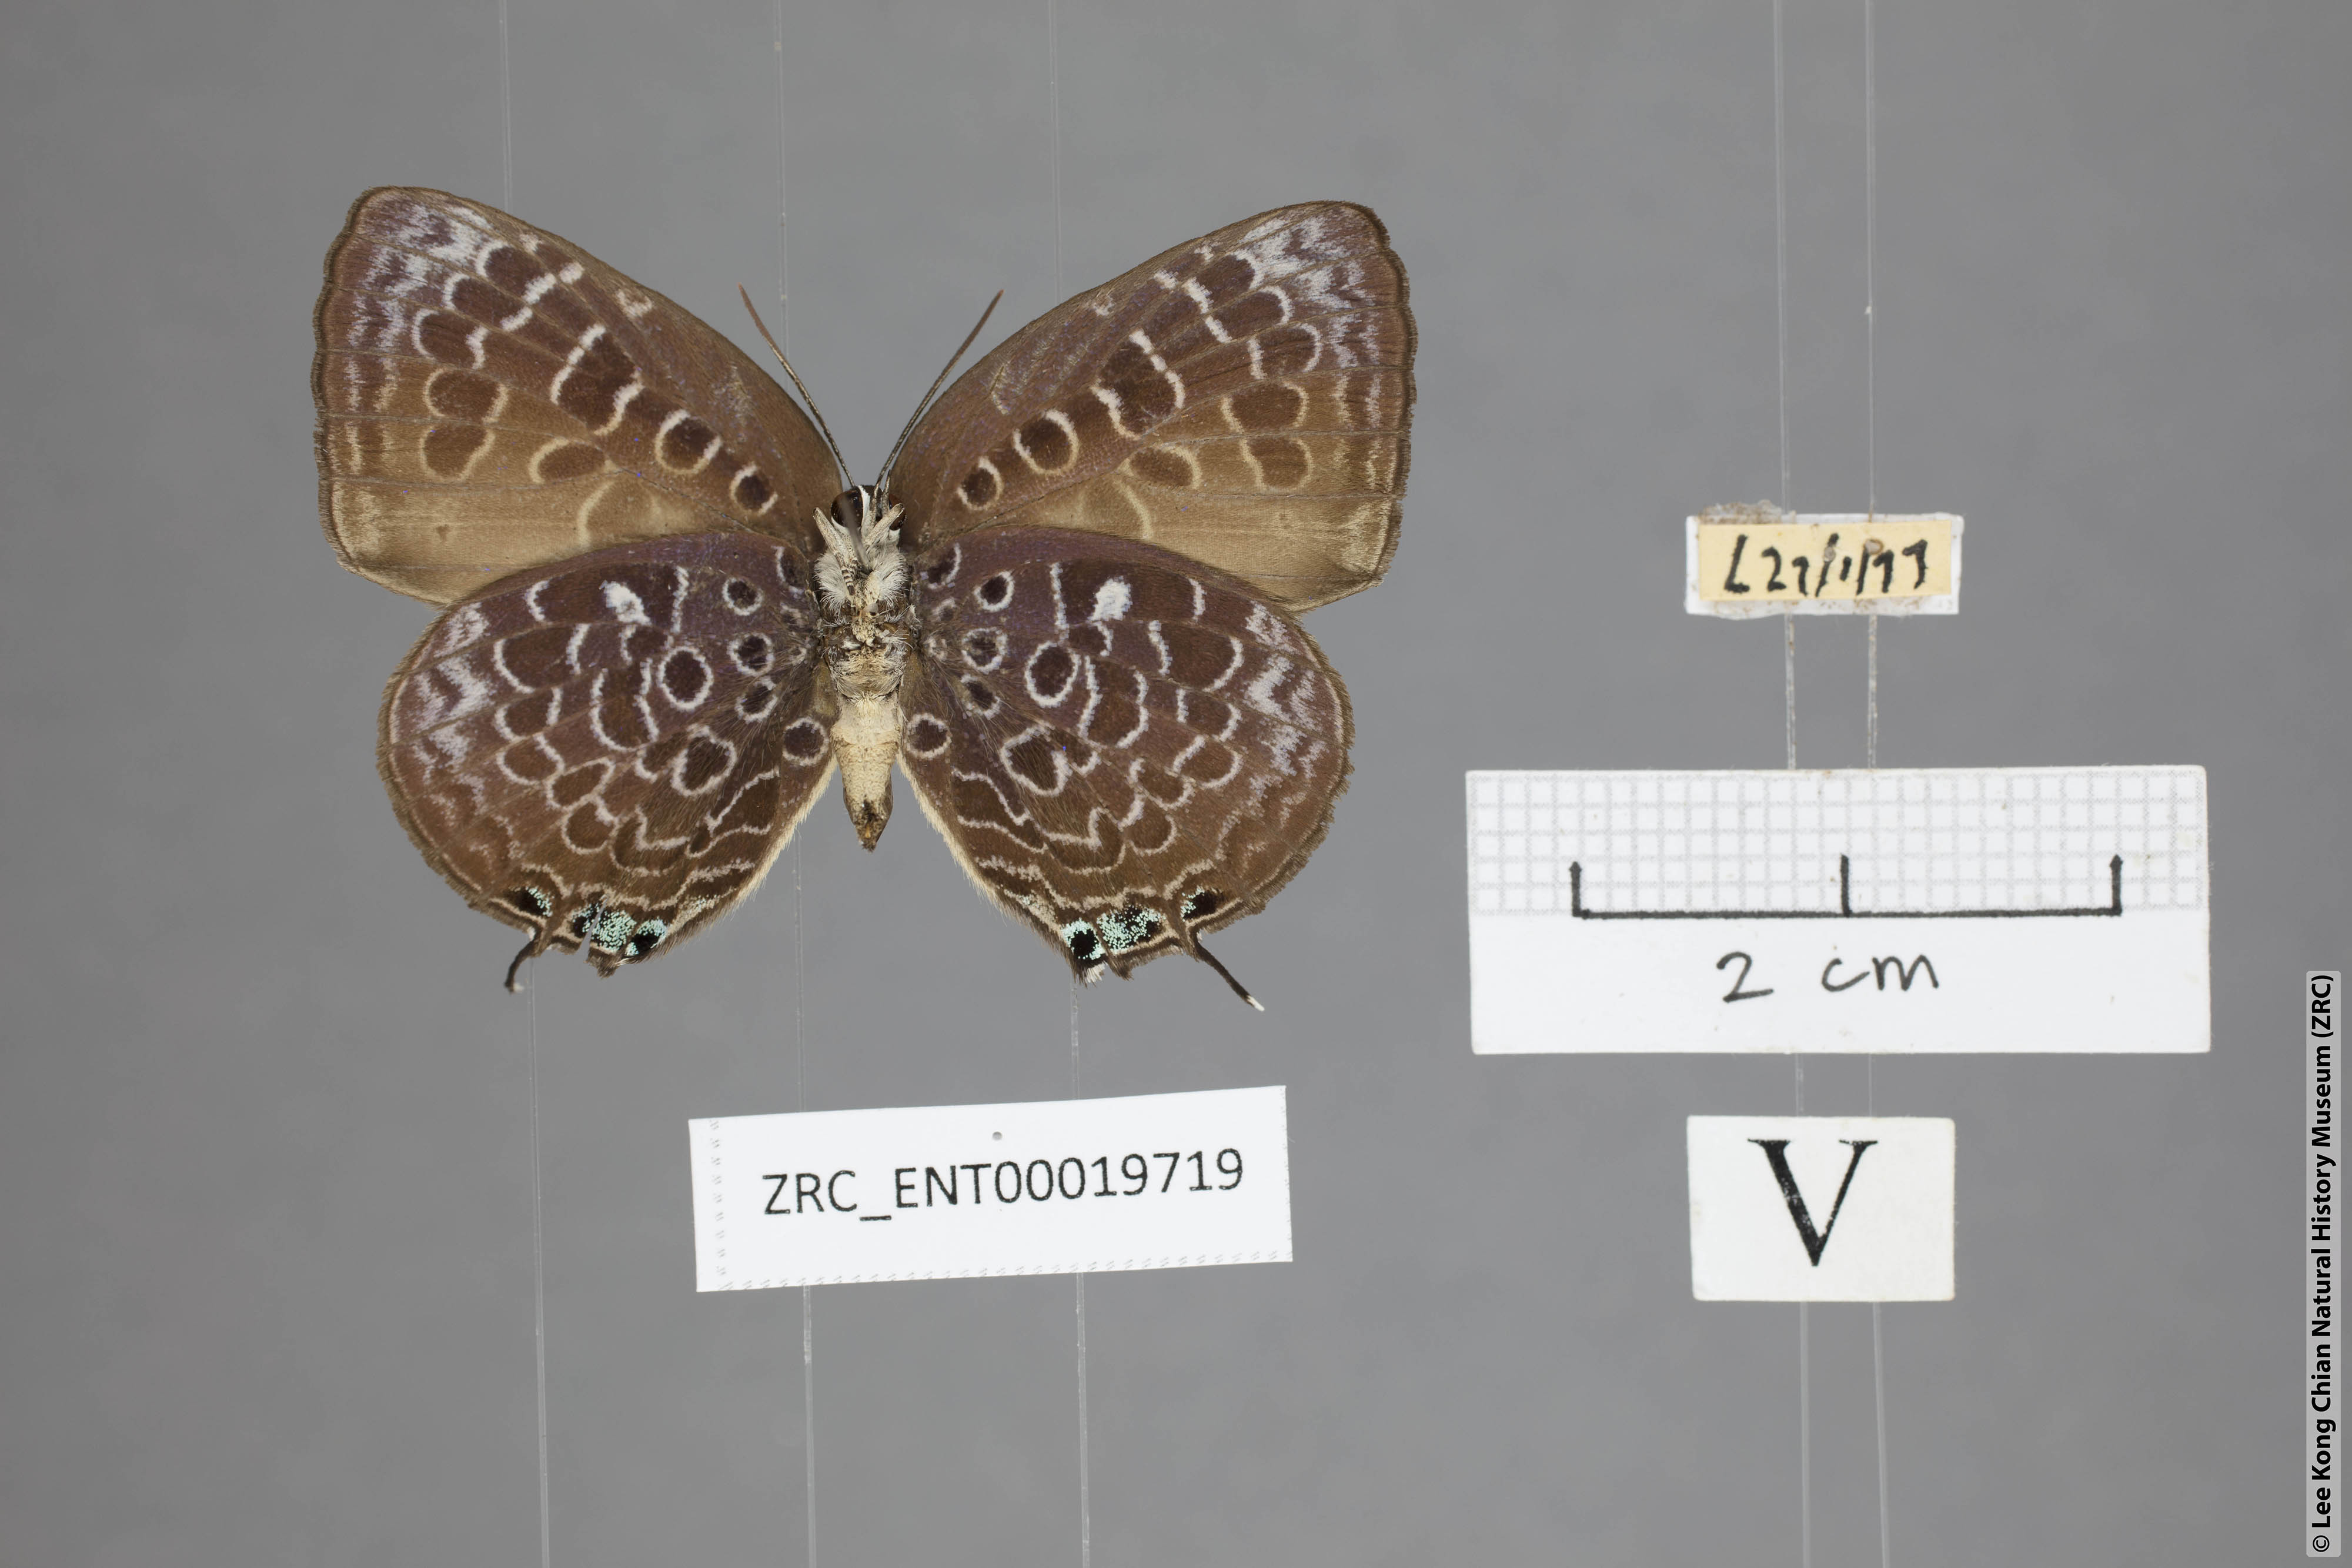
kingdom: Animalia
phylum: Arthropoda
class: Insecta
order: Lepidoptera
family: Lycaenidae
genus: Arhopala
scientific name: Arhopala myrzala
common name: Malayan oakblue
